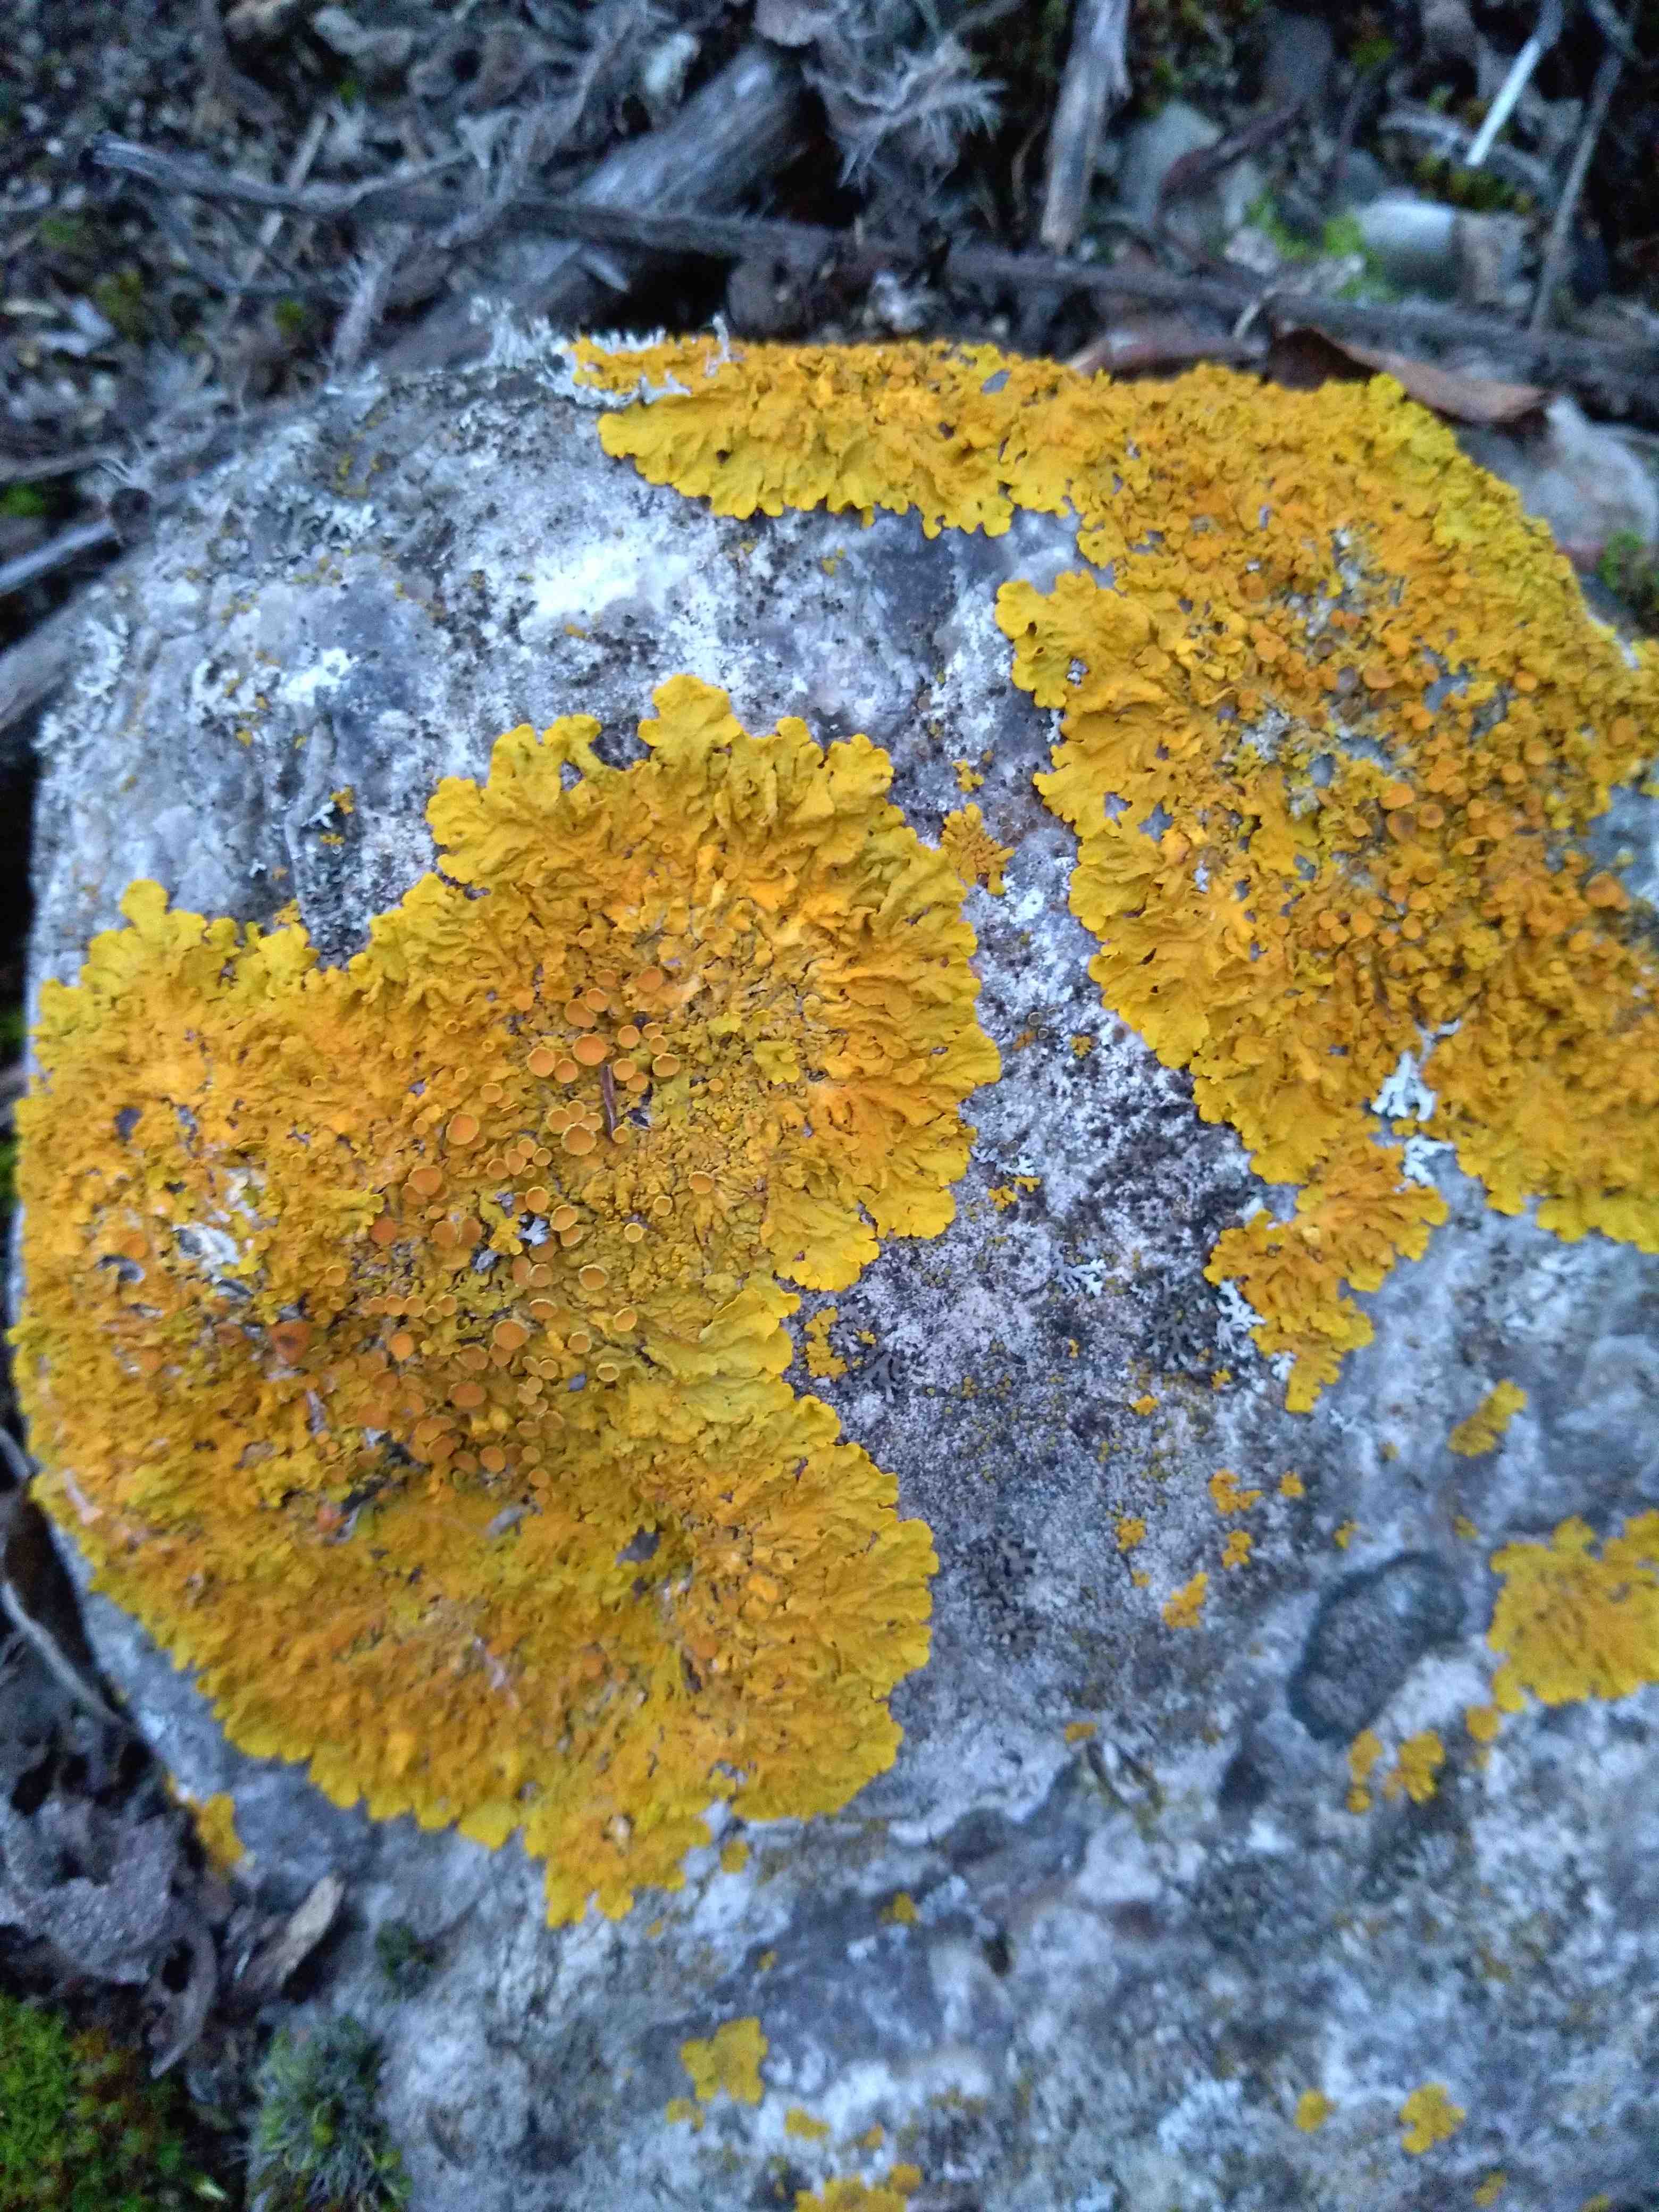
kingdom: Fungi
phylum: Ascomycota
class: Lecanoromycetes
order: Teloschistales
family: Teloschistaceae
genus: Xanthoria
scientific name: Xanthoria parietina
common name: almindelig væggelav
